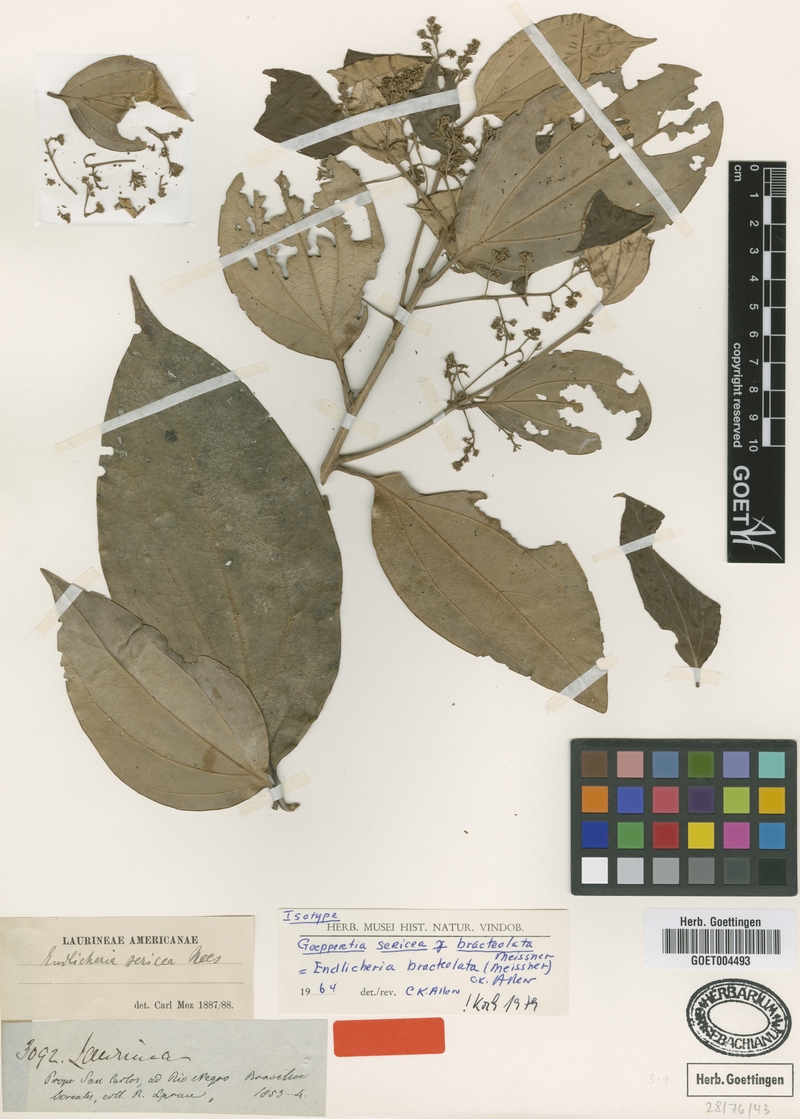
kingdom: Plantae
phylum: Tracheophyta
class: Magnoliopsida
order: Laurales
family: Lauraceae
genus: Endlicheria
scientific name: Endlicheria bracteolata
